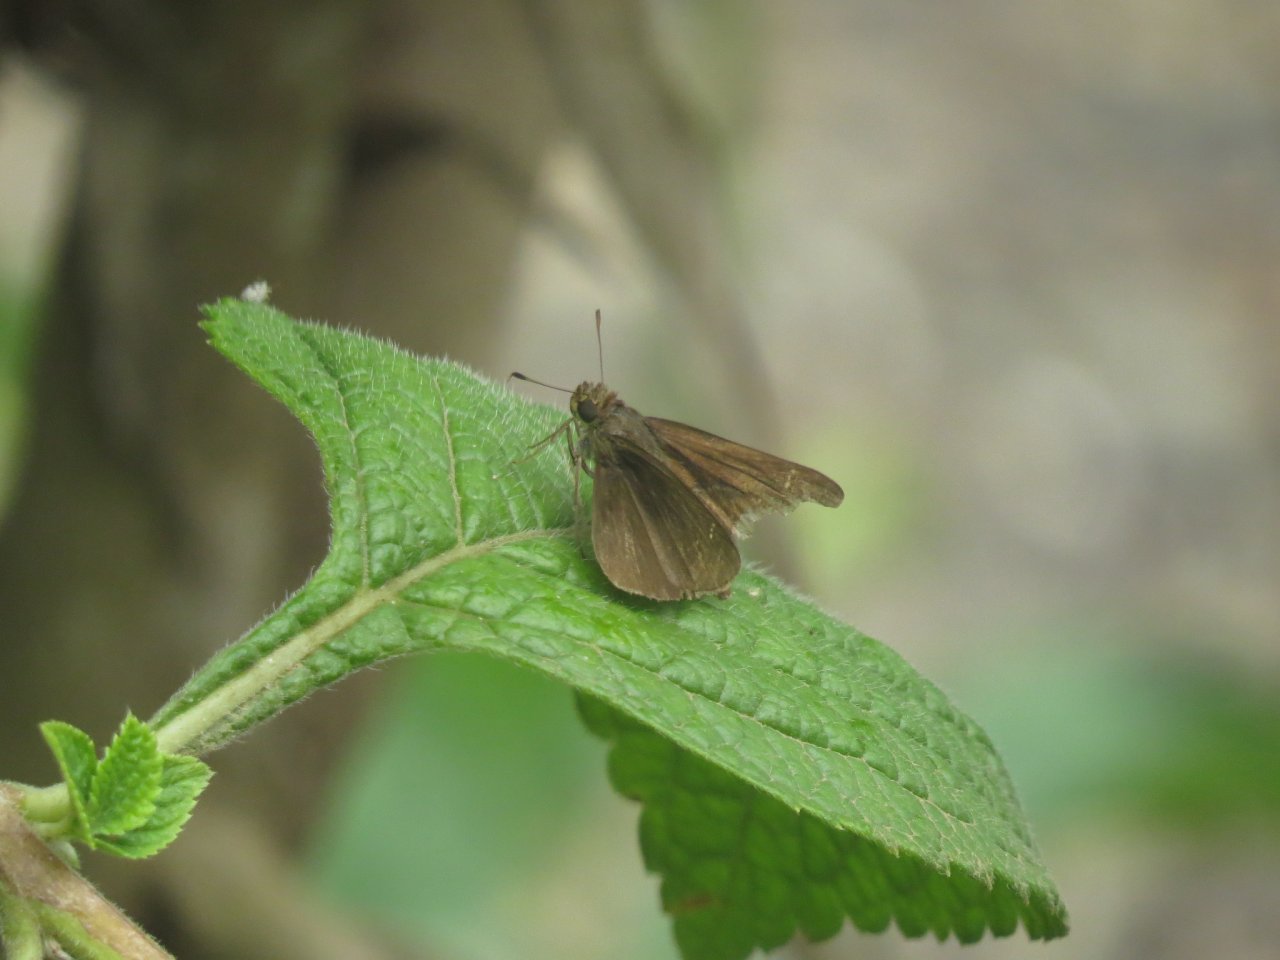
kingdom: Animalia
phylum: Arthropoda
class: Insecta
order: Lepidoptera
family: Hesperiidae
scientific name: Hesperiidae
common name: Skippers
